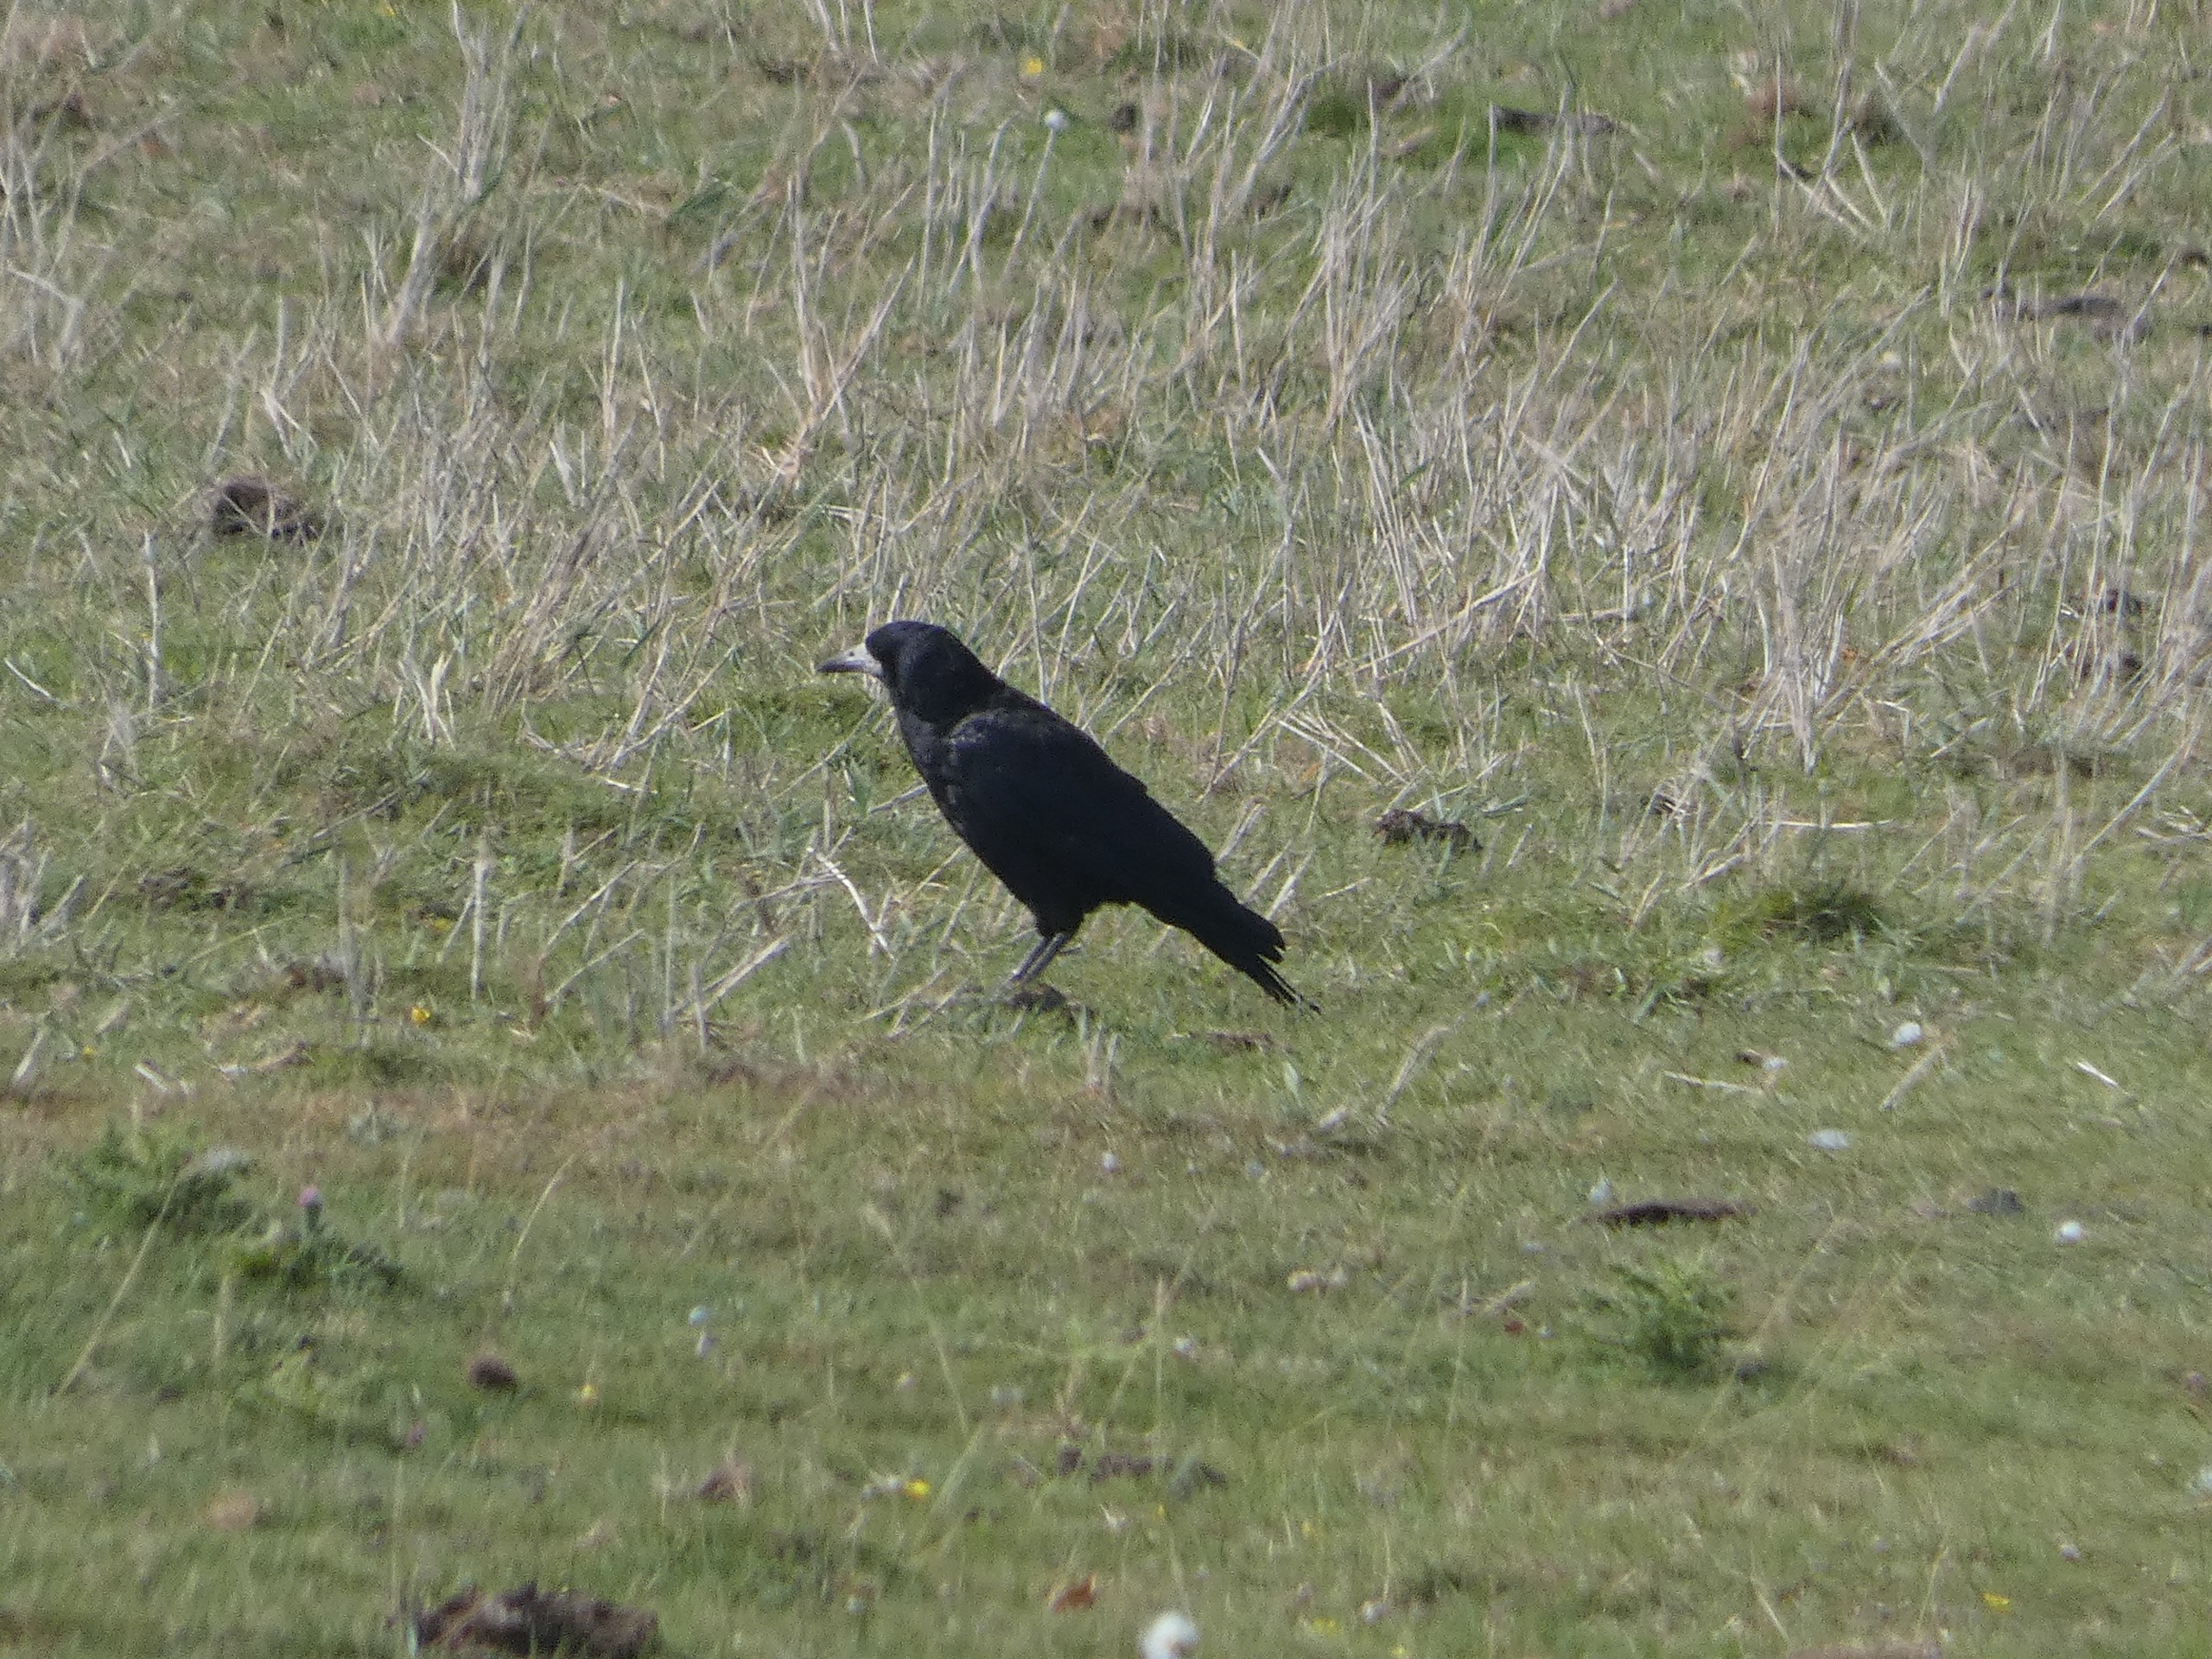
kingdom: Animalia
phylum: Chordata
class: Aves
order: Passeriformes
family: Corvidae
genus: Corvus
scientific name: Corvus frugilegus
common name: Råge
